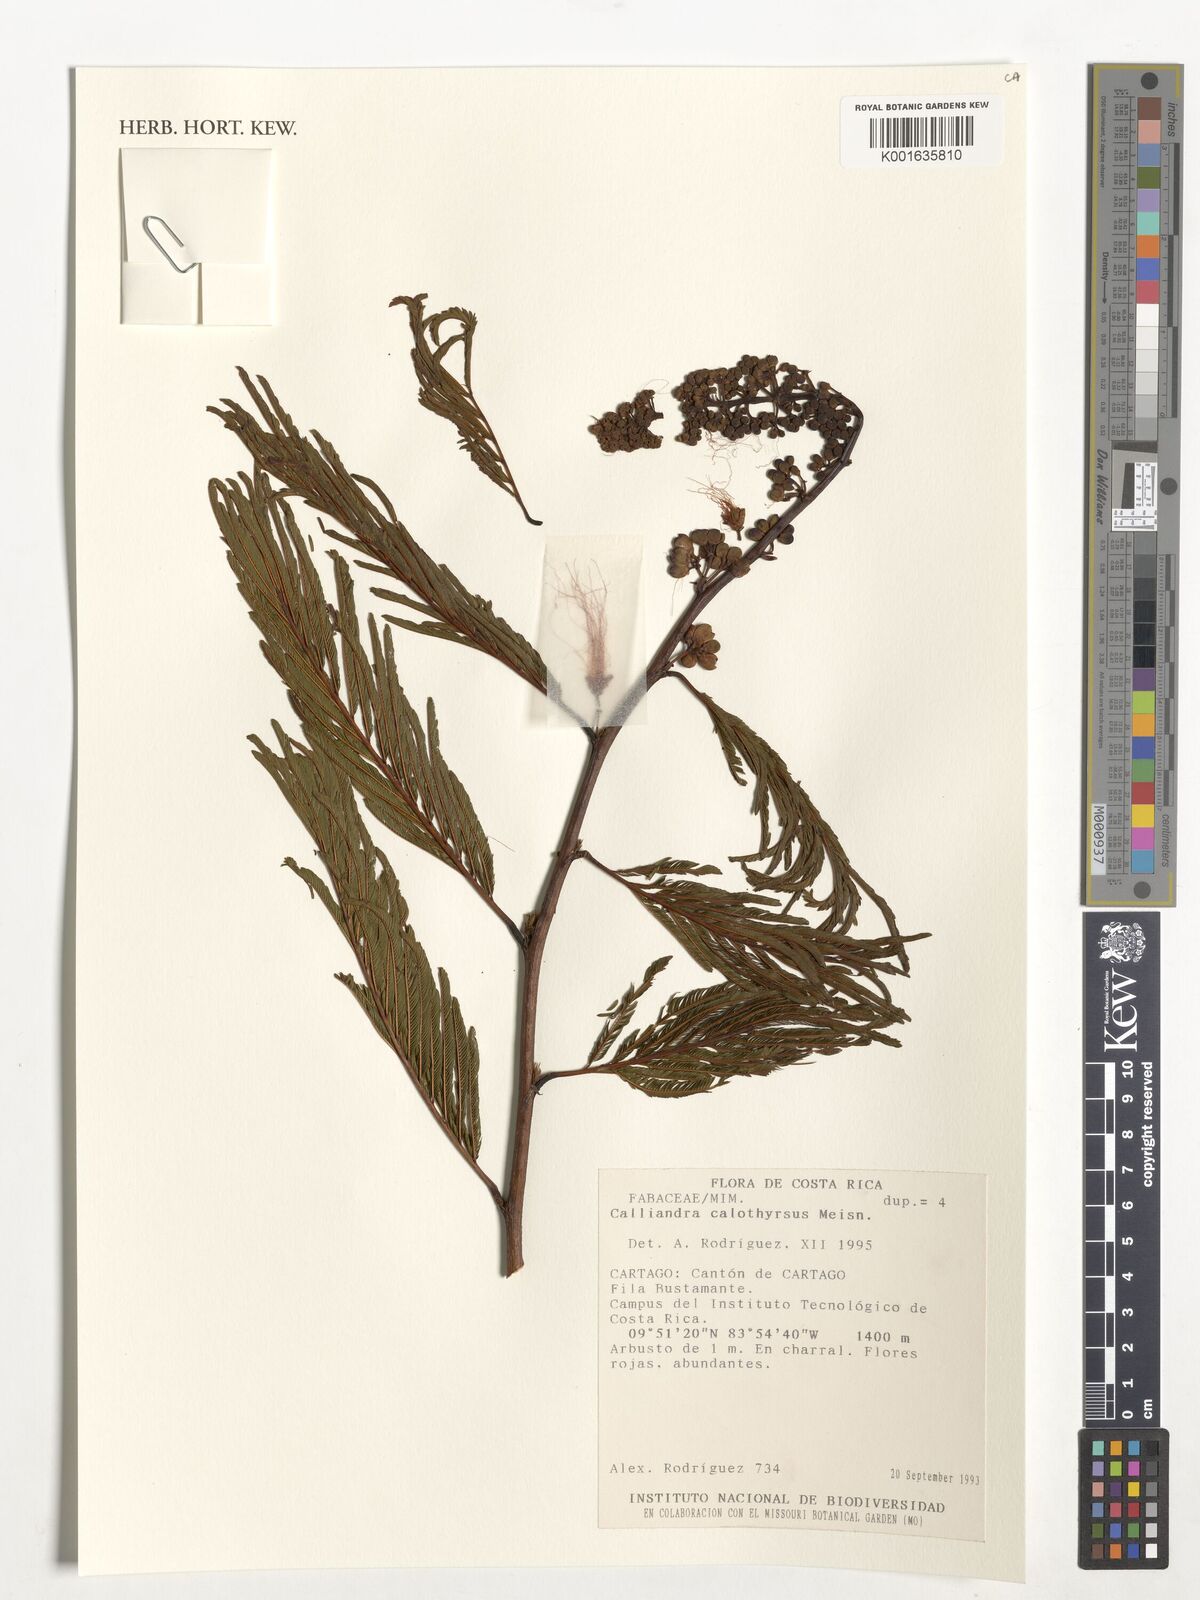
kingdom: Plantae
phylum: Tracheophyta
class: Magnoliopsida
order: Fabales
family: Fabaceae
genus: Calliandra
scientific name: Calliandra houstoniana
